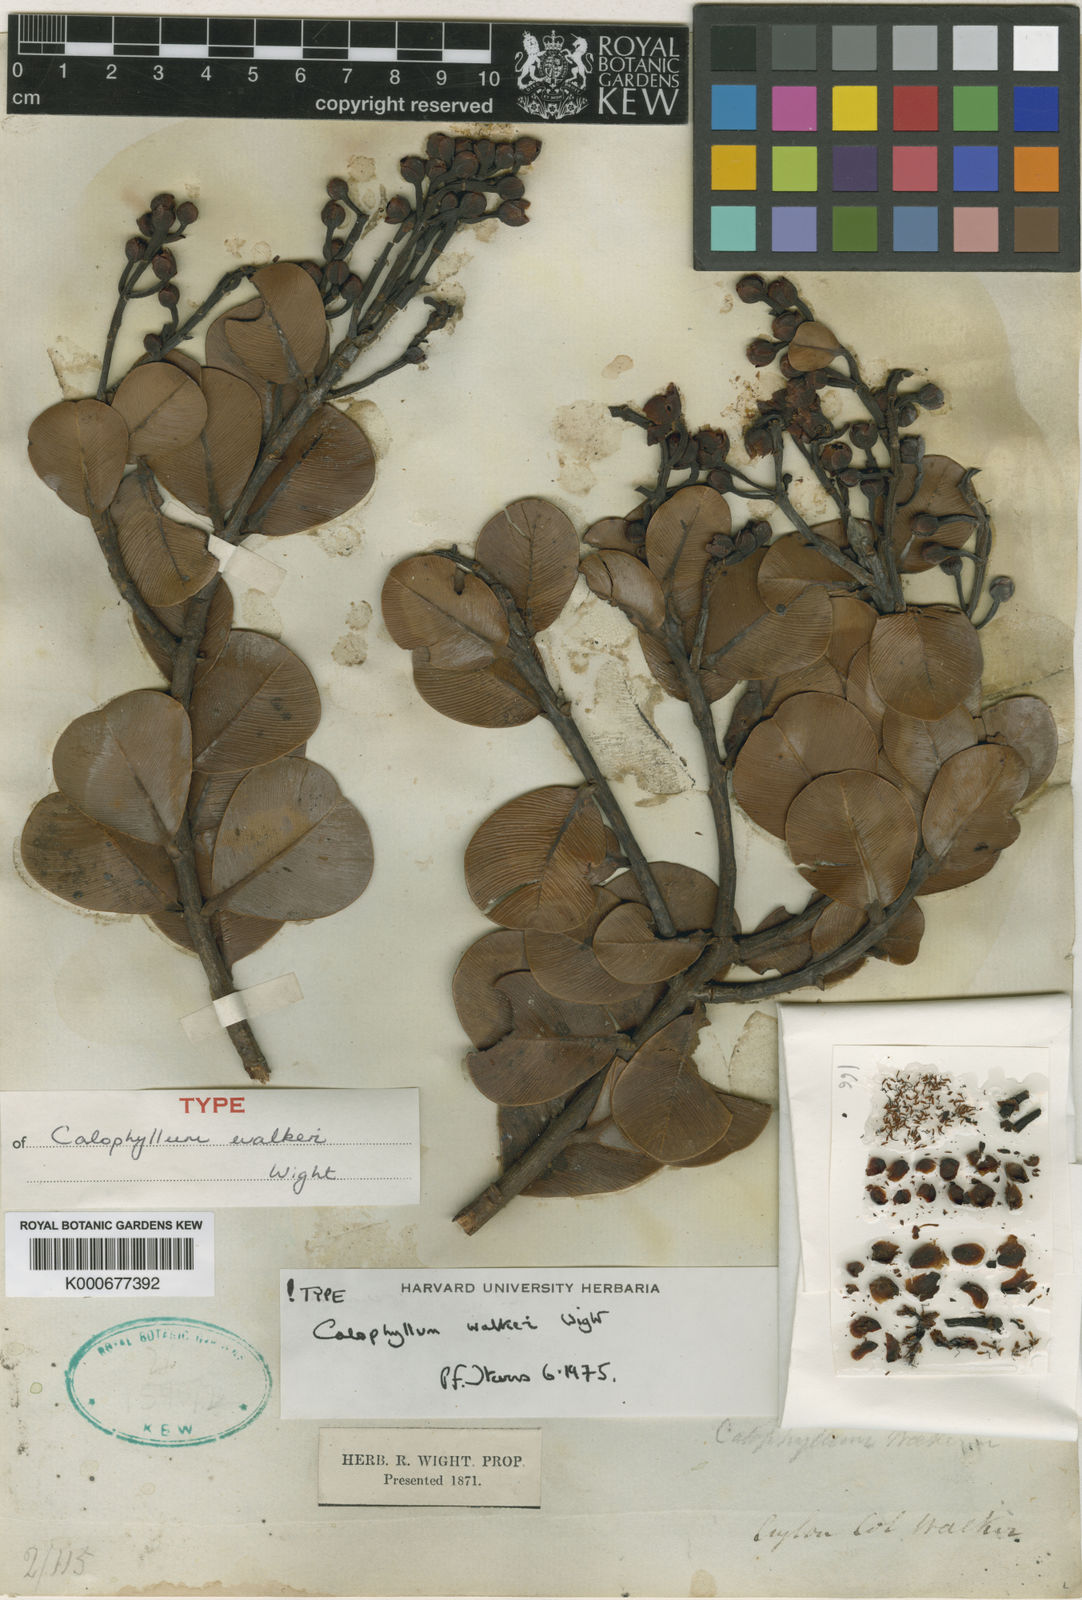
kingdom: Plantae
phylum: Tracheophyta
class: Magnoliopsida
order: Malpighiales
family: Calophyllaceae
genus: Calophyllum
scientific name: Calophyllum walkeri
